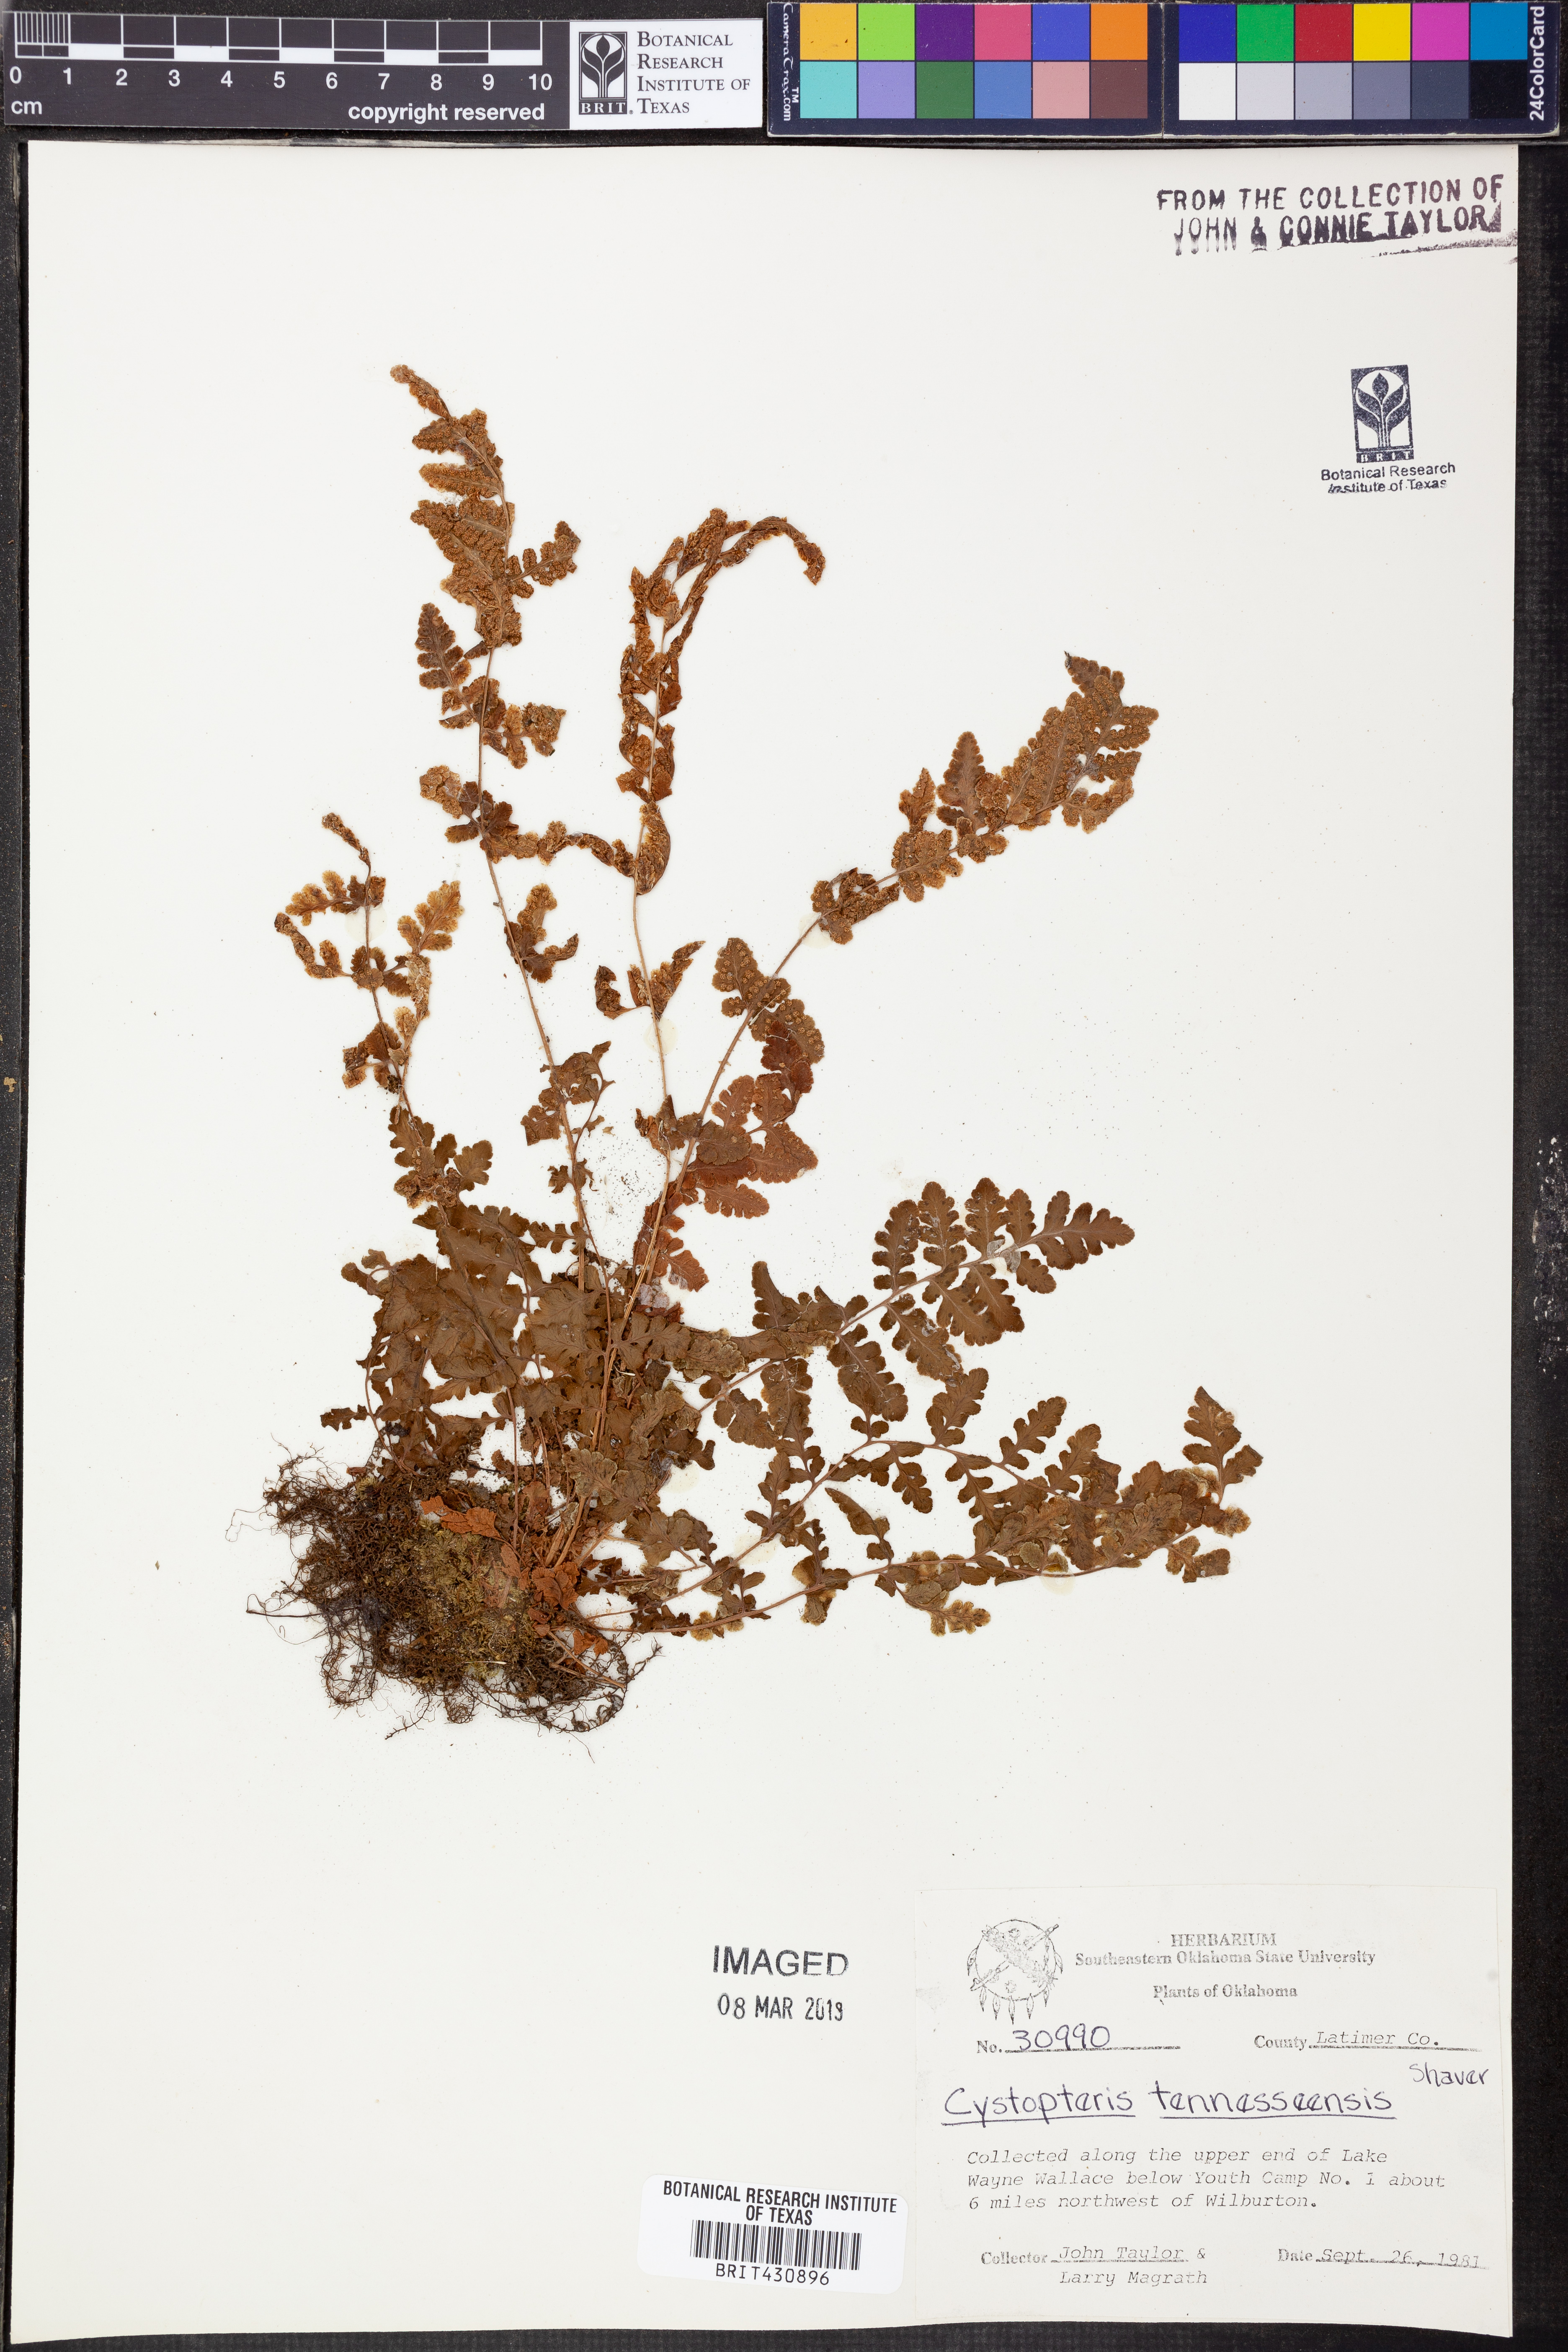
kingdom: Plantae
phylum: Tracheophyta
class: Polypodiopsida
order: Polypodiales
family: Cystopteridaceae
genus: Cystopteris
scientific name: Cystopteris tennesseensis
